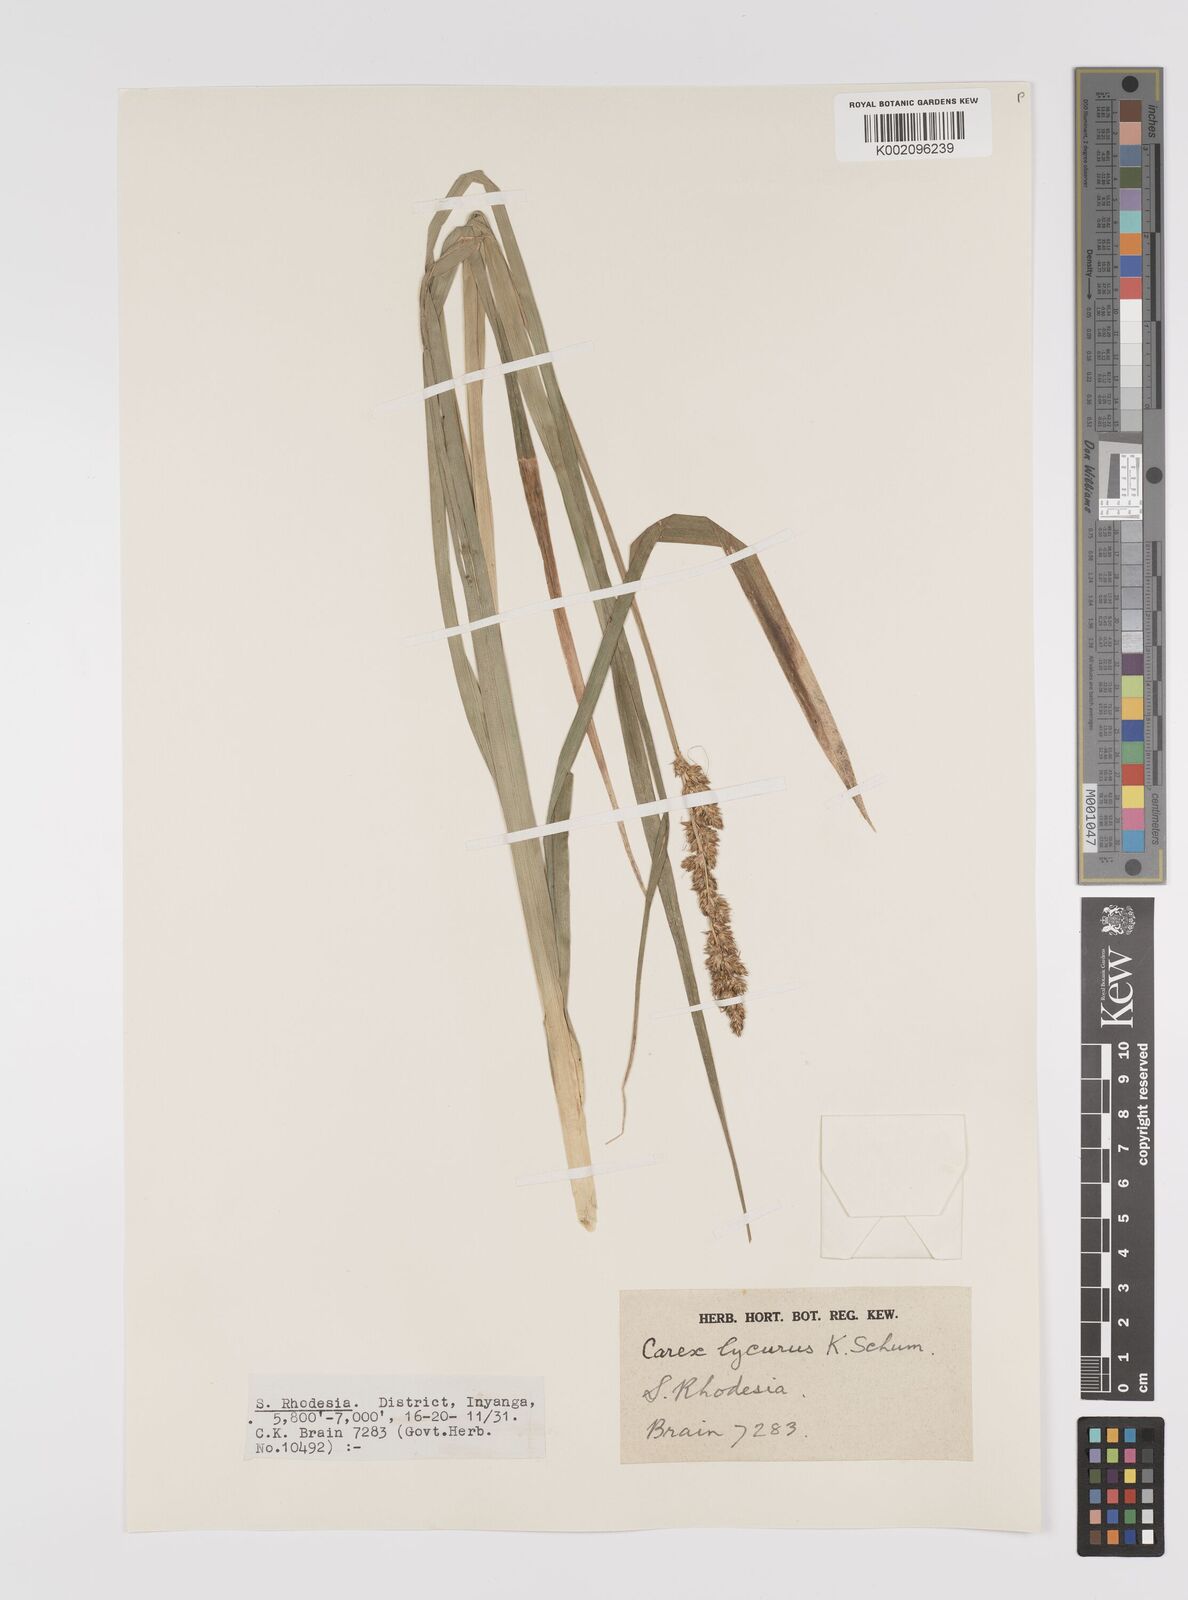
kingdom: Plantae
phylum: Tracheophyta
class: Liliopsida
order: Poales
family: Cyperaceae
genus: Carex
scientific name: Carex lycurus
